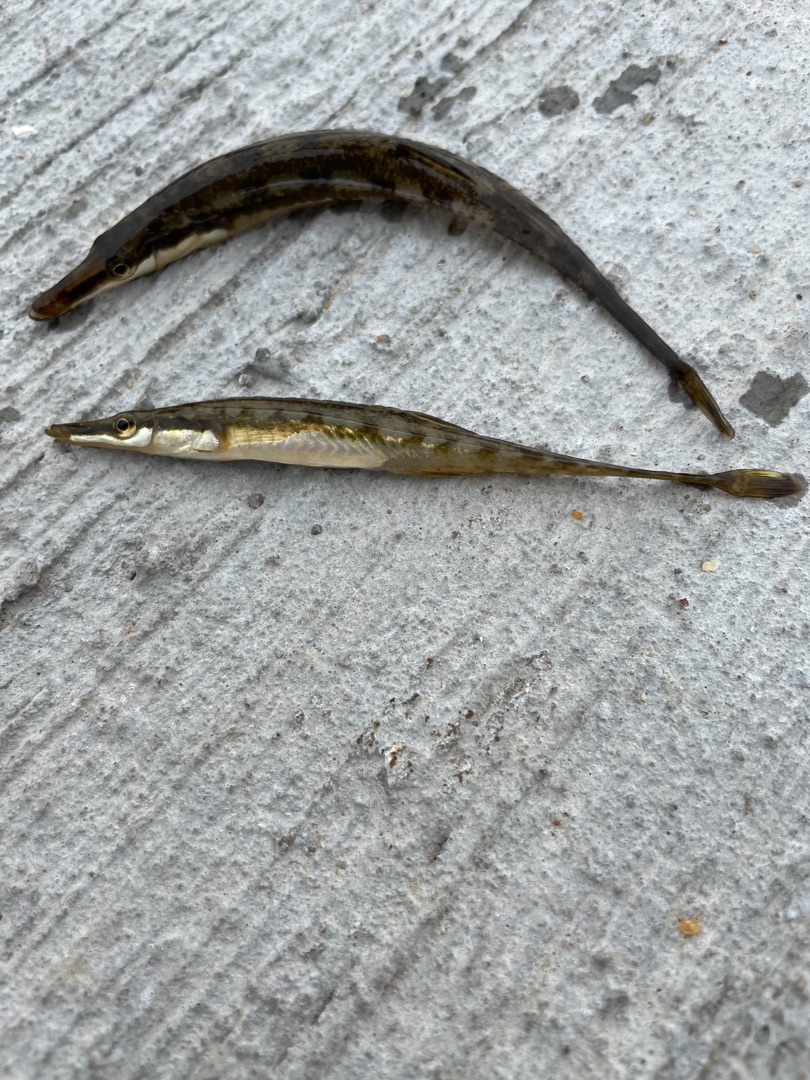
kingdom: Animalia
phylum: Chordata
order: Gasterosteiformes
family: Gasterosteidae
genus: Spinachia
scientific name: Spinachia spinachia
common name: Tangsnarre
